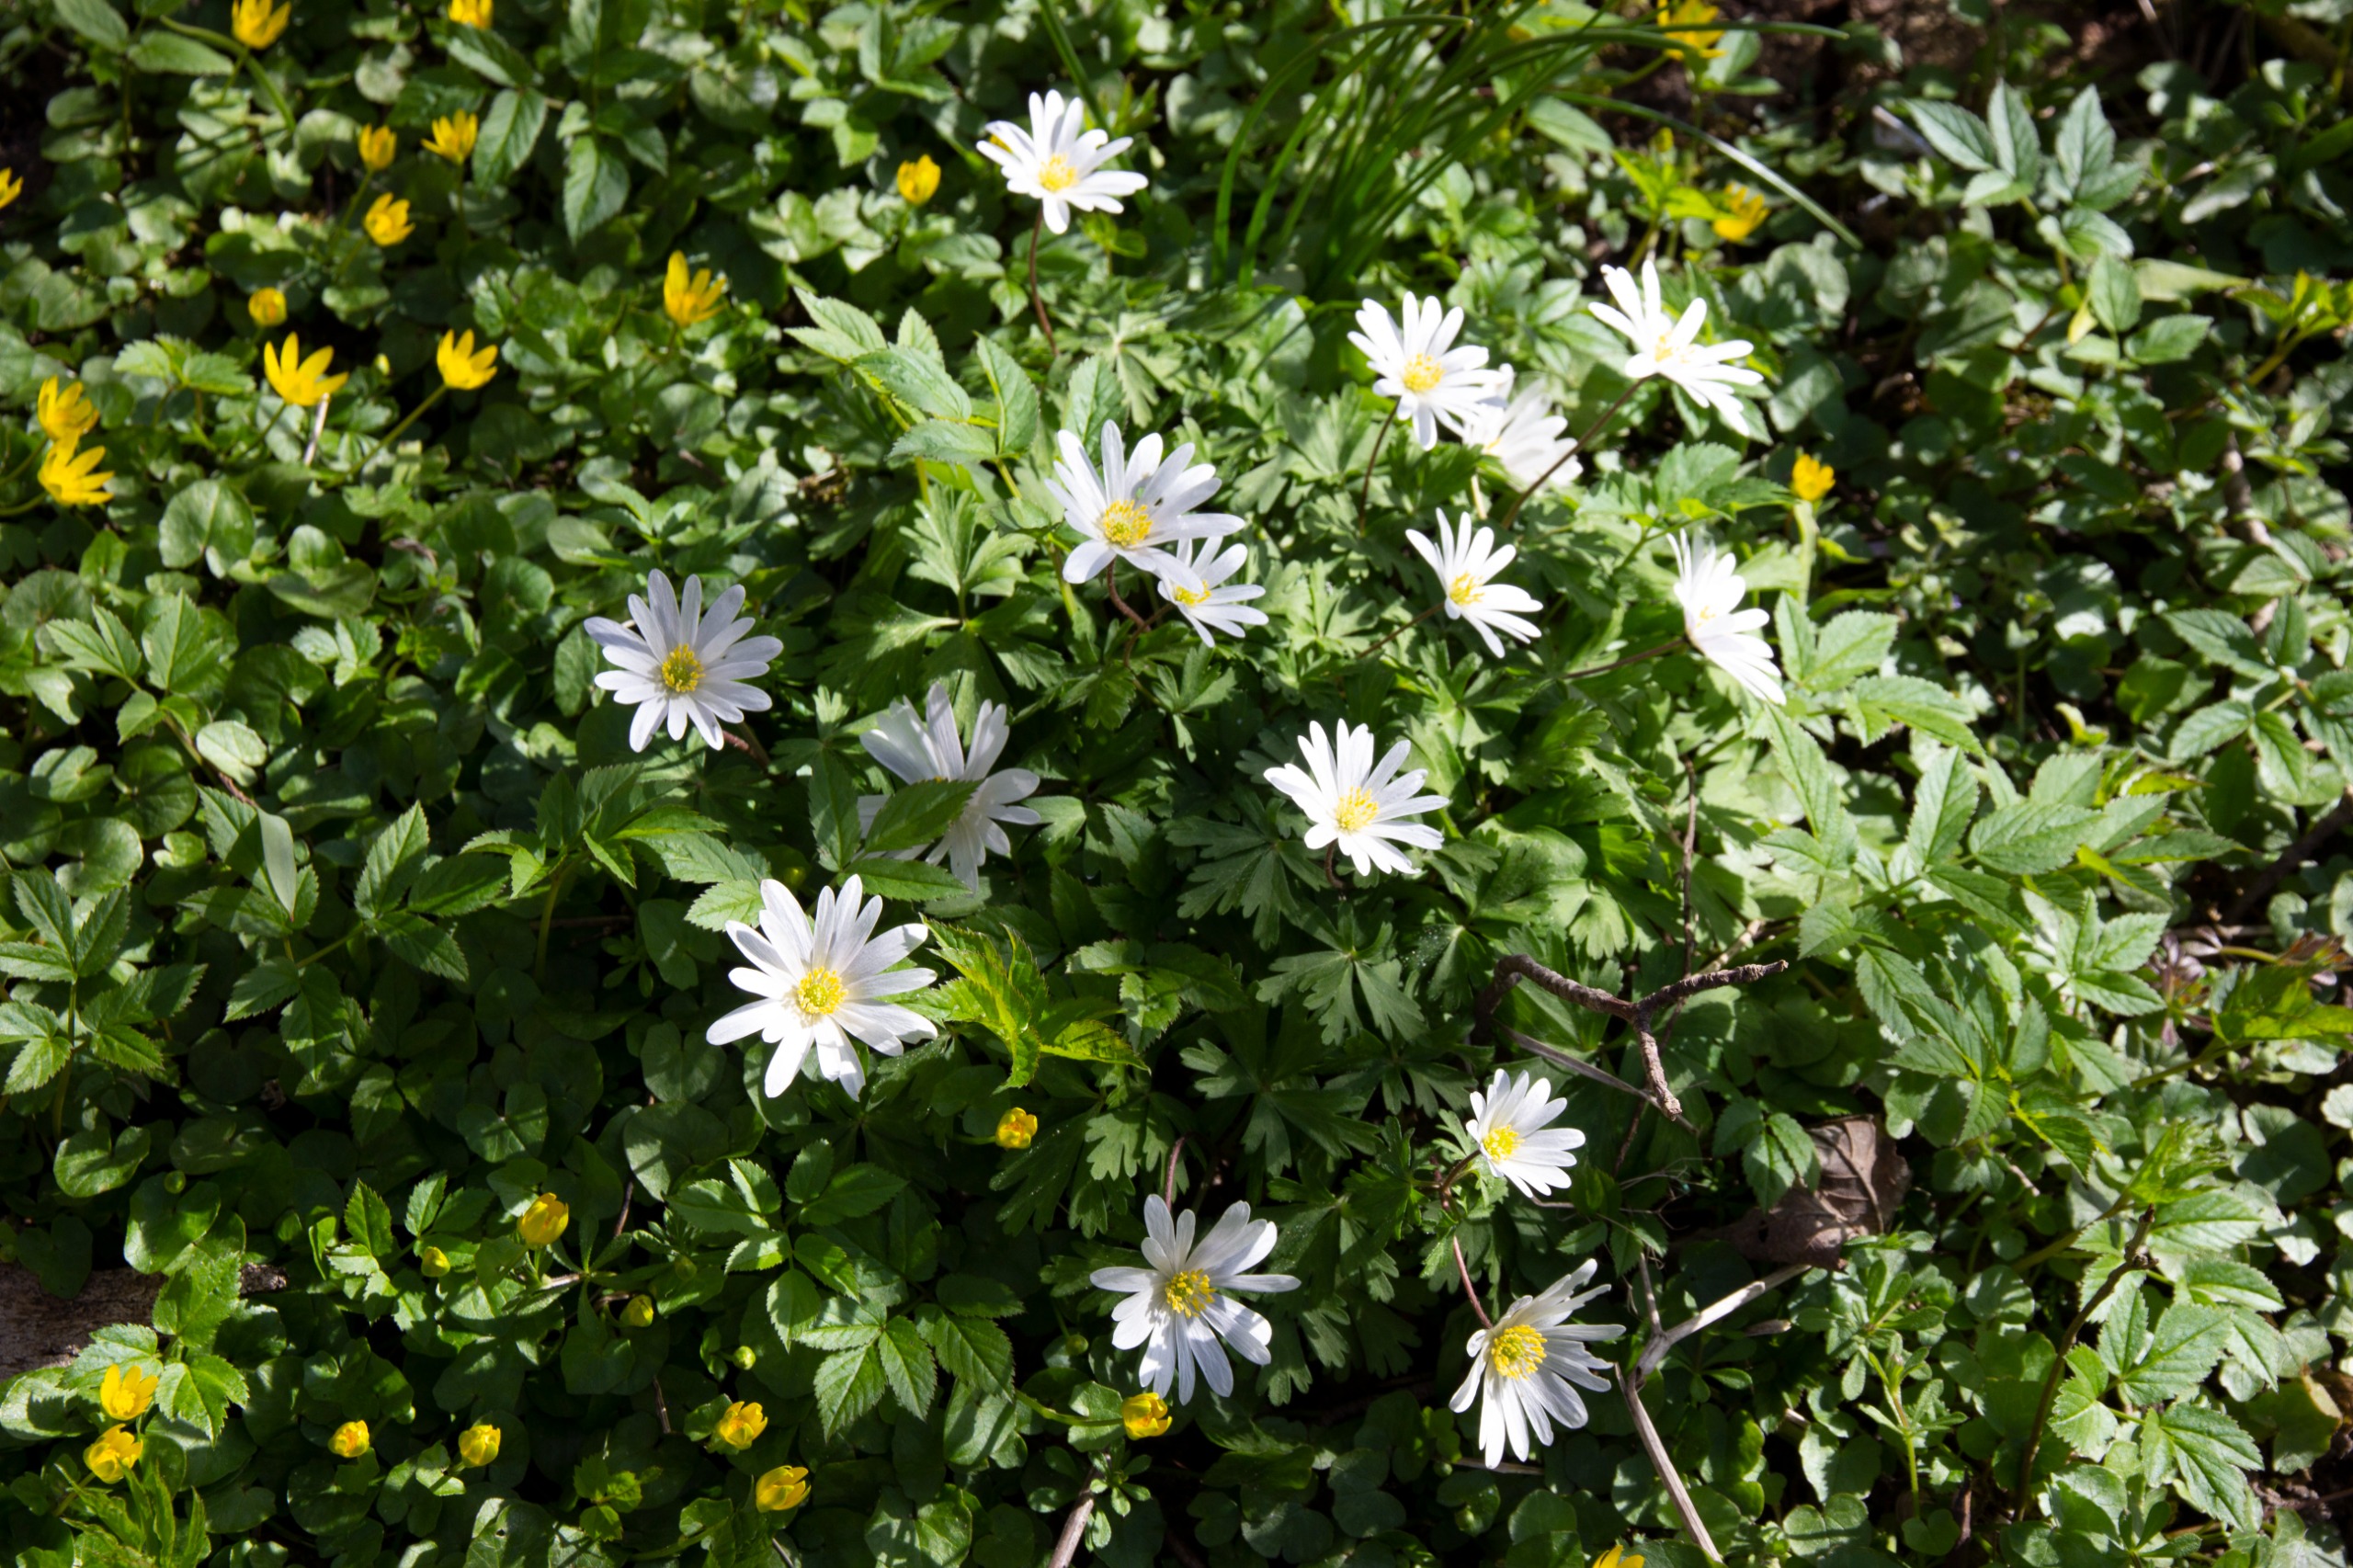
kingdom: Plantae
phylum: Tracheophyta
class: Magnoliopsida
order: Ranunculales
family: Ranunculaceae
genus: Anemone
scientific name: Anemone apennina
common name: Blegblå anemone
